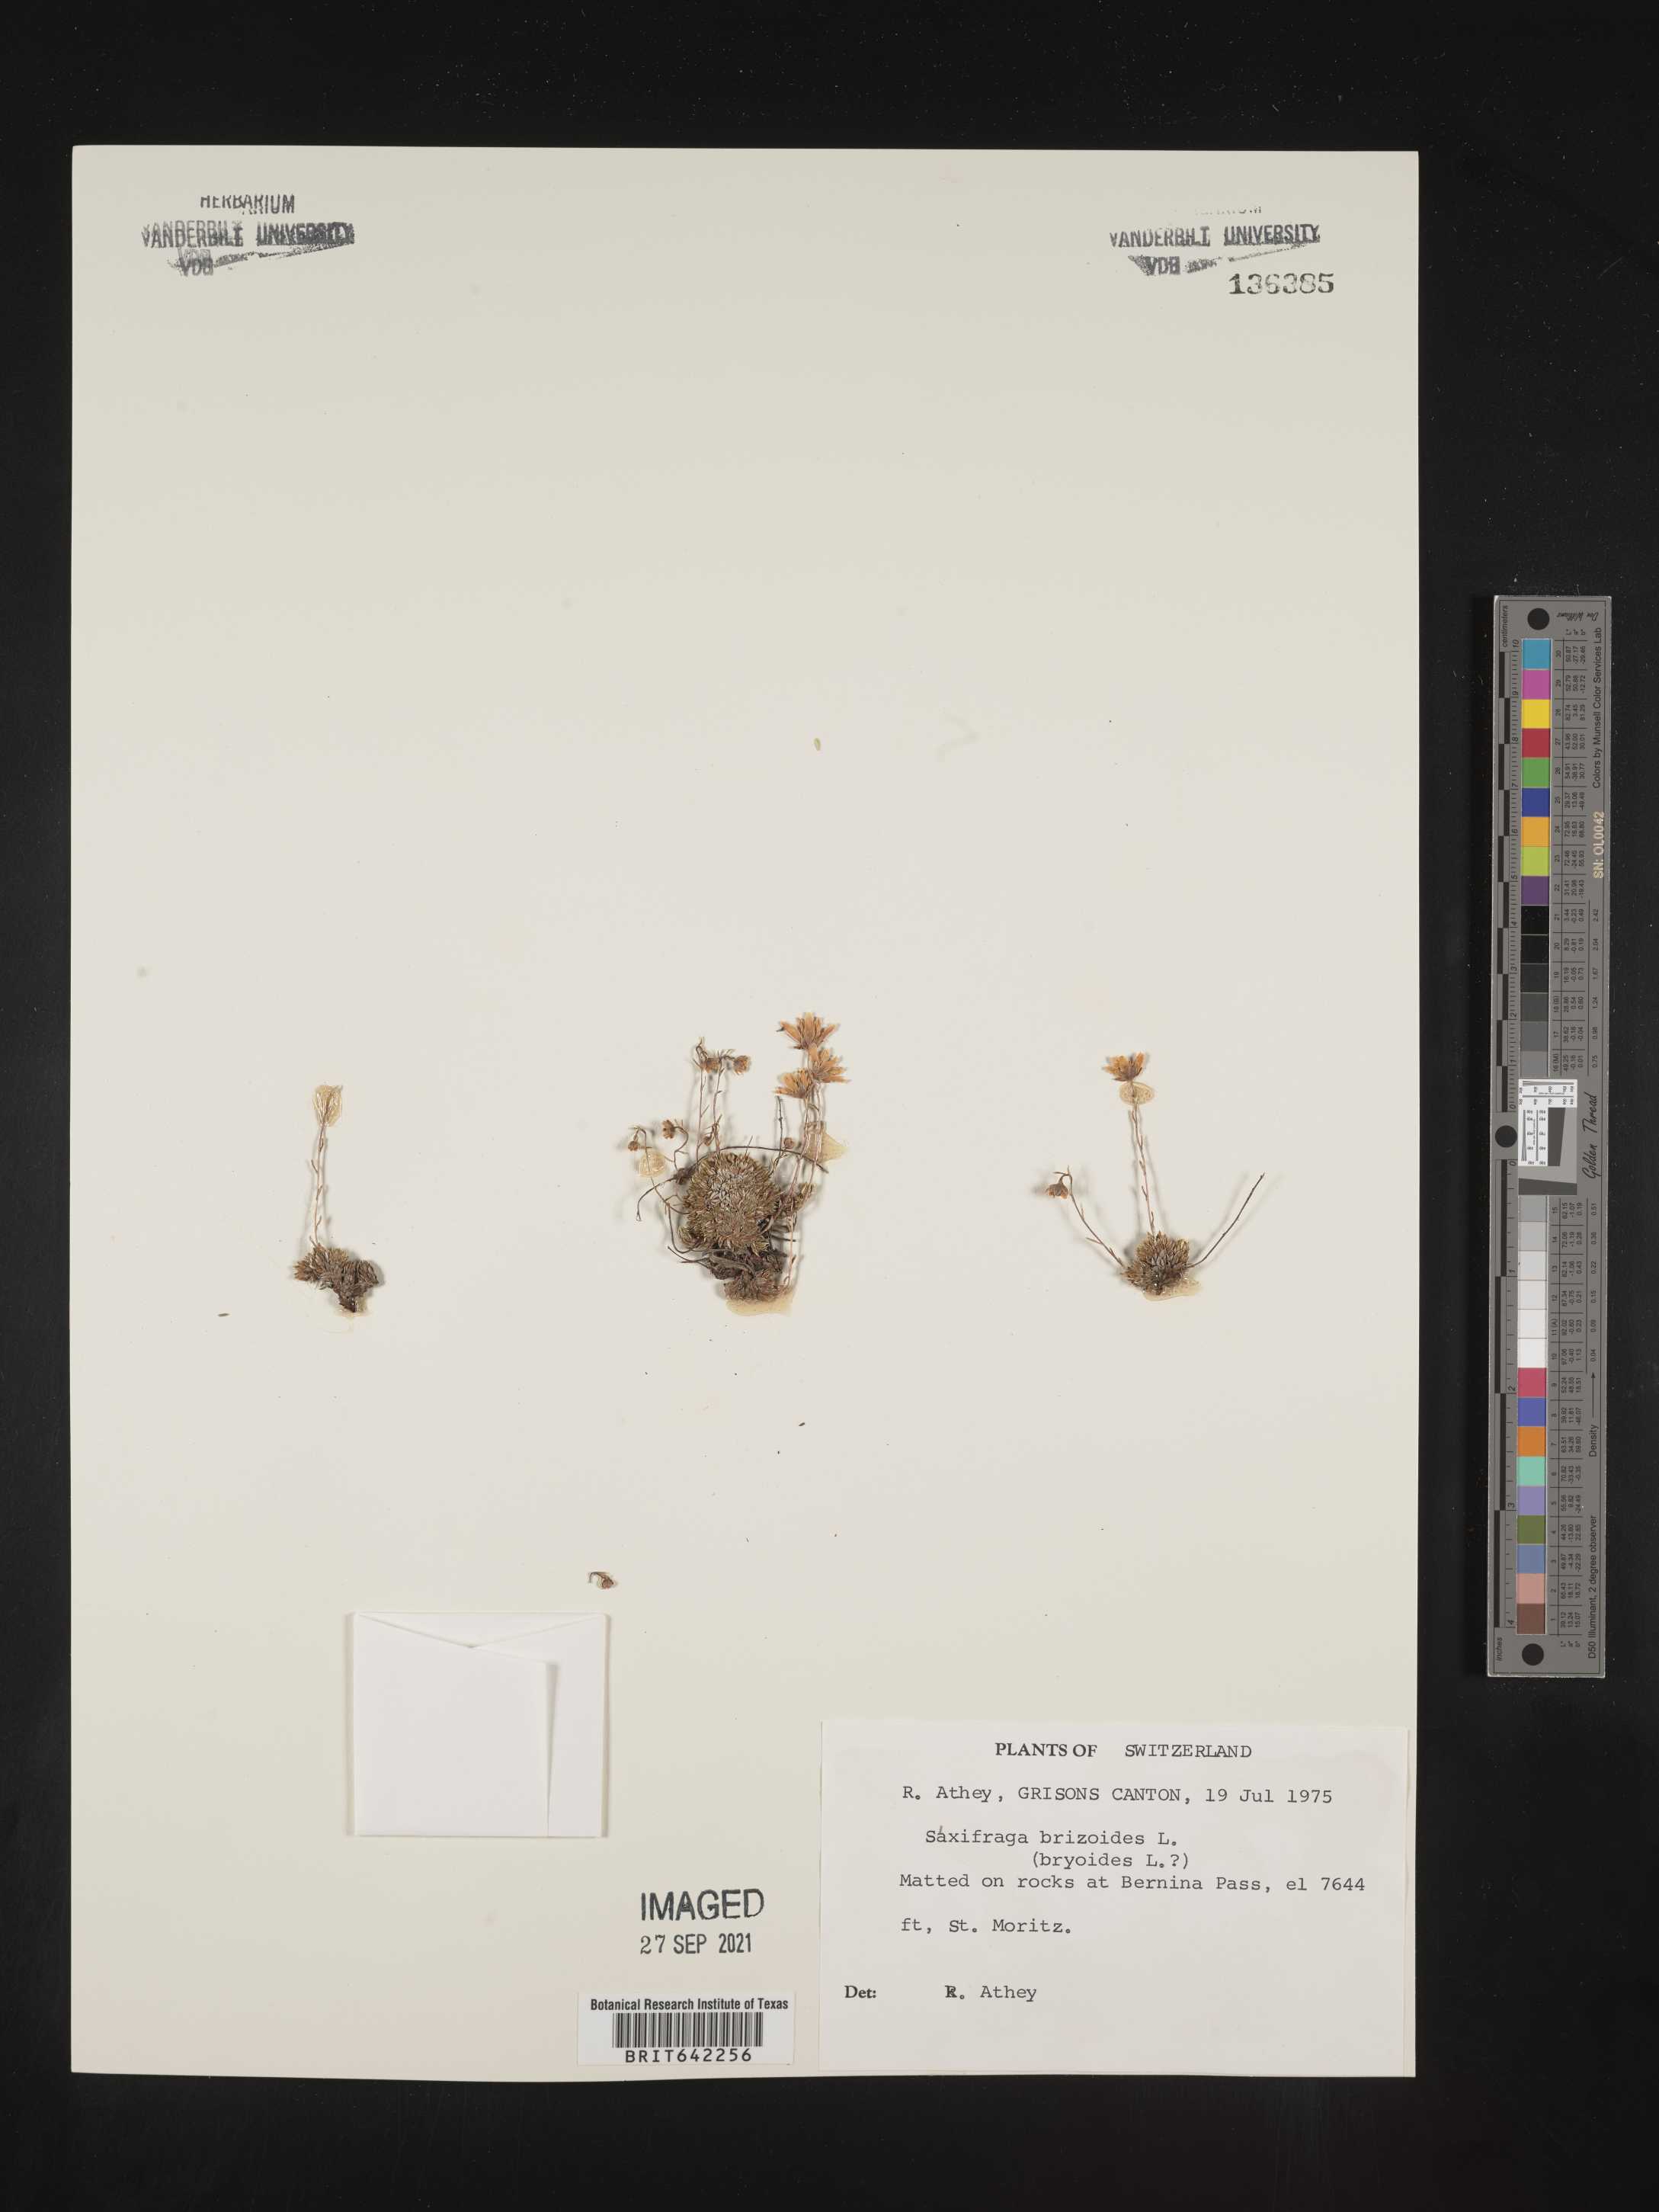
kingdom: Plantae
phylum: Tracheophyta
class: Magnoliopsida
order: Saxifragales
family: Saxifragaceae
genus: Saxifraga
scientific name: Saxifraga
